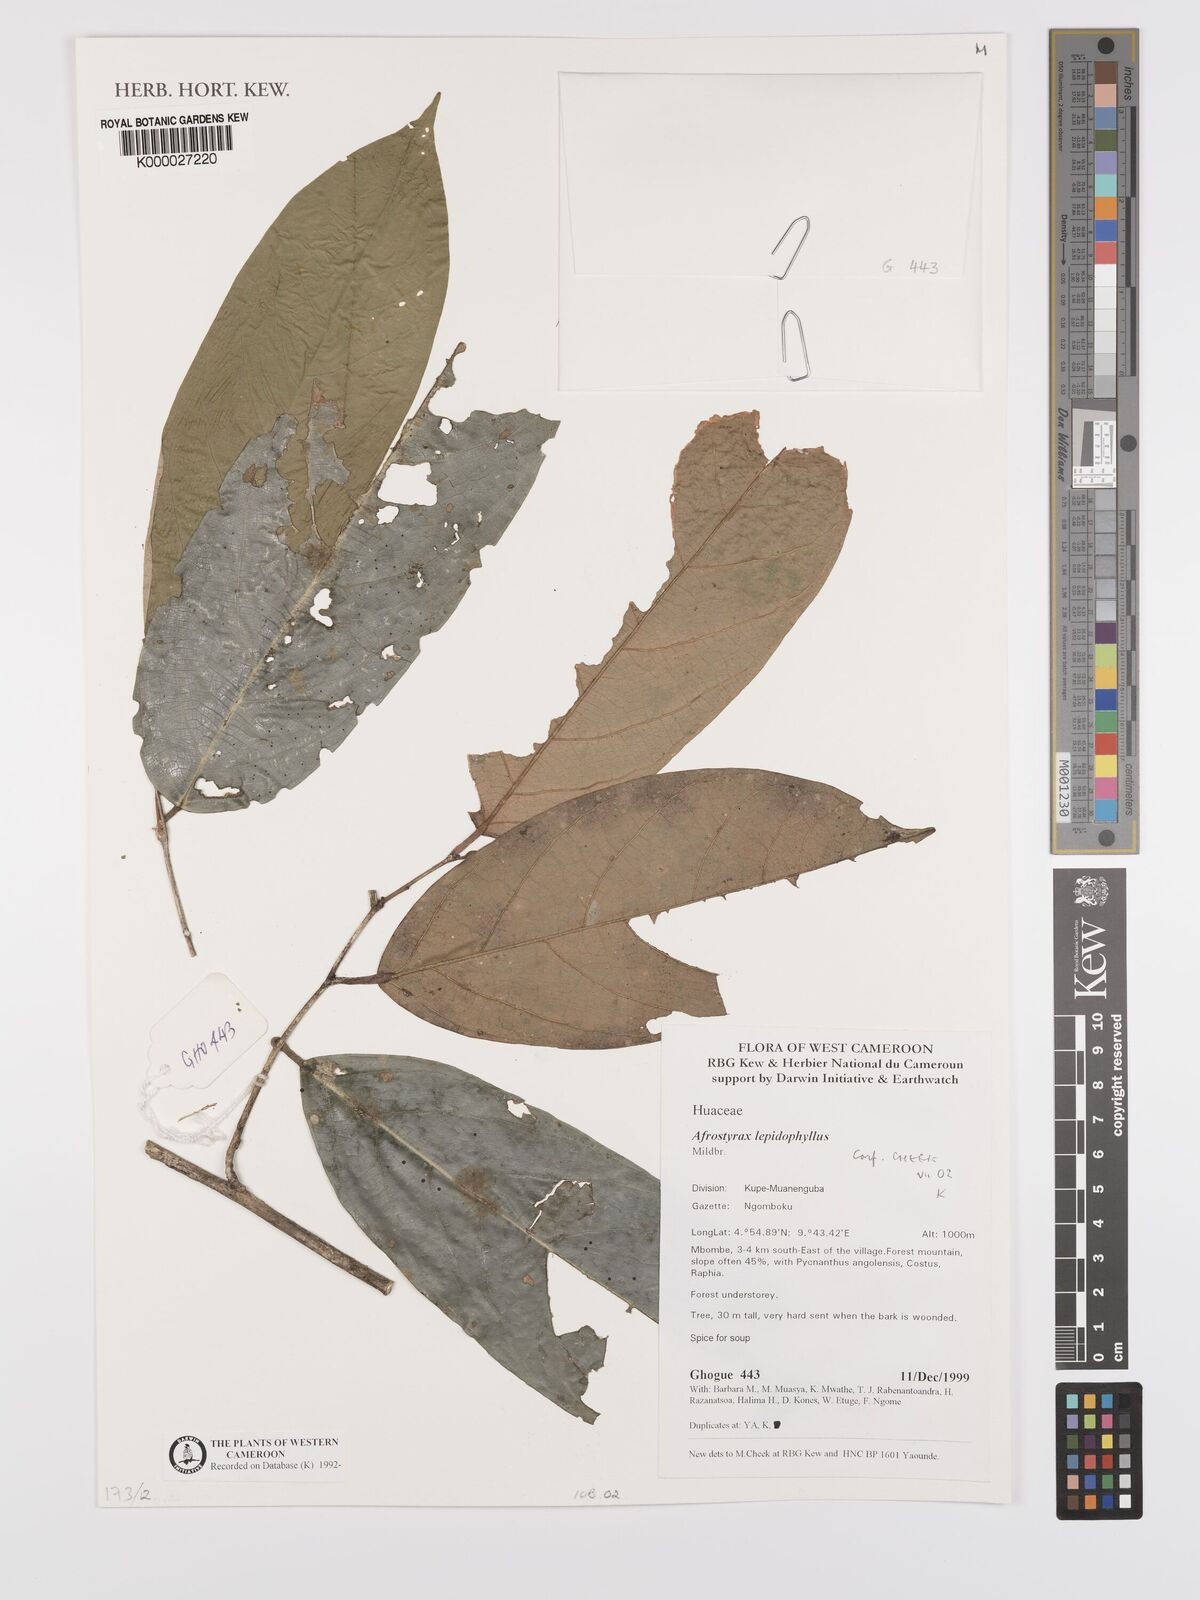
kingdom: Plantae
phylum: Tracheophyta
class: Magnoliopsida
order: Oxalidales
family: Huaceae
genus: Afrostyrax
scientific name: Afrostyrax lepidophyllus
